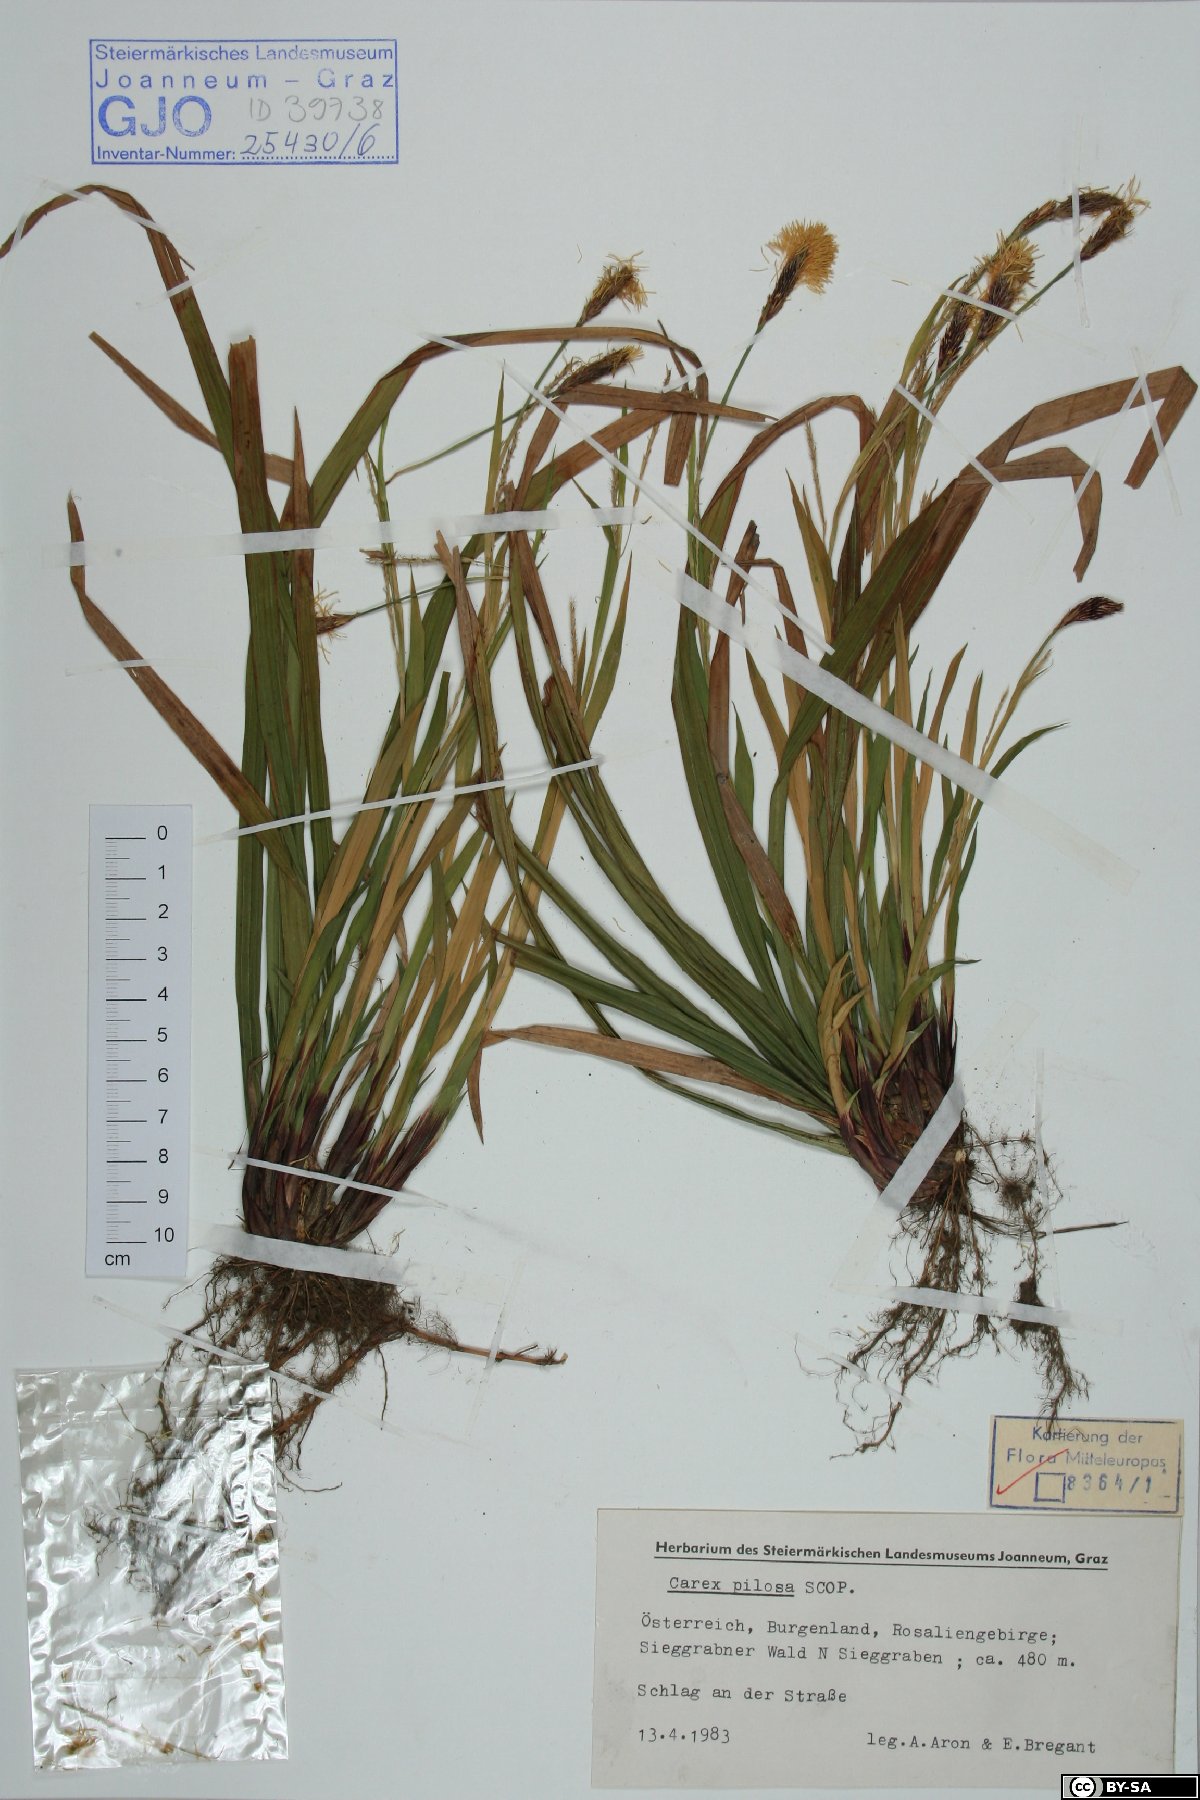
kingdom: Plantae
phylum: Tracheophyta
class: Liliopsida
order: Poales
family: Cyperaceae
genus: Carex
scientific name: Carex pilosa
